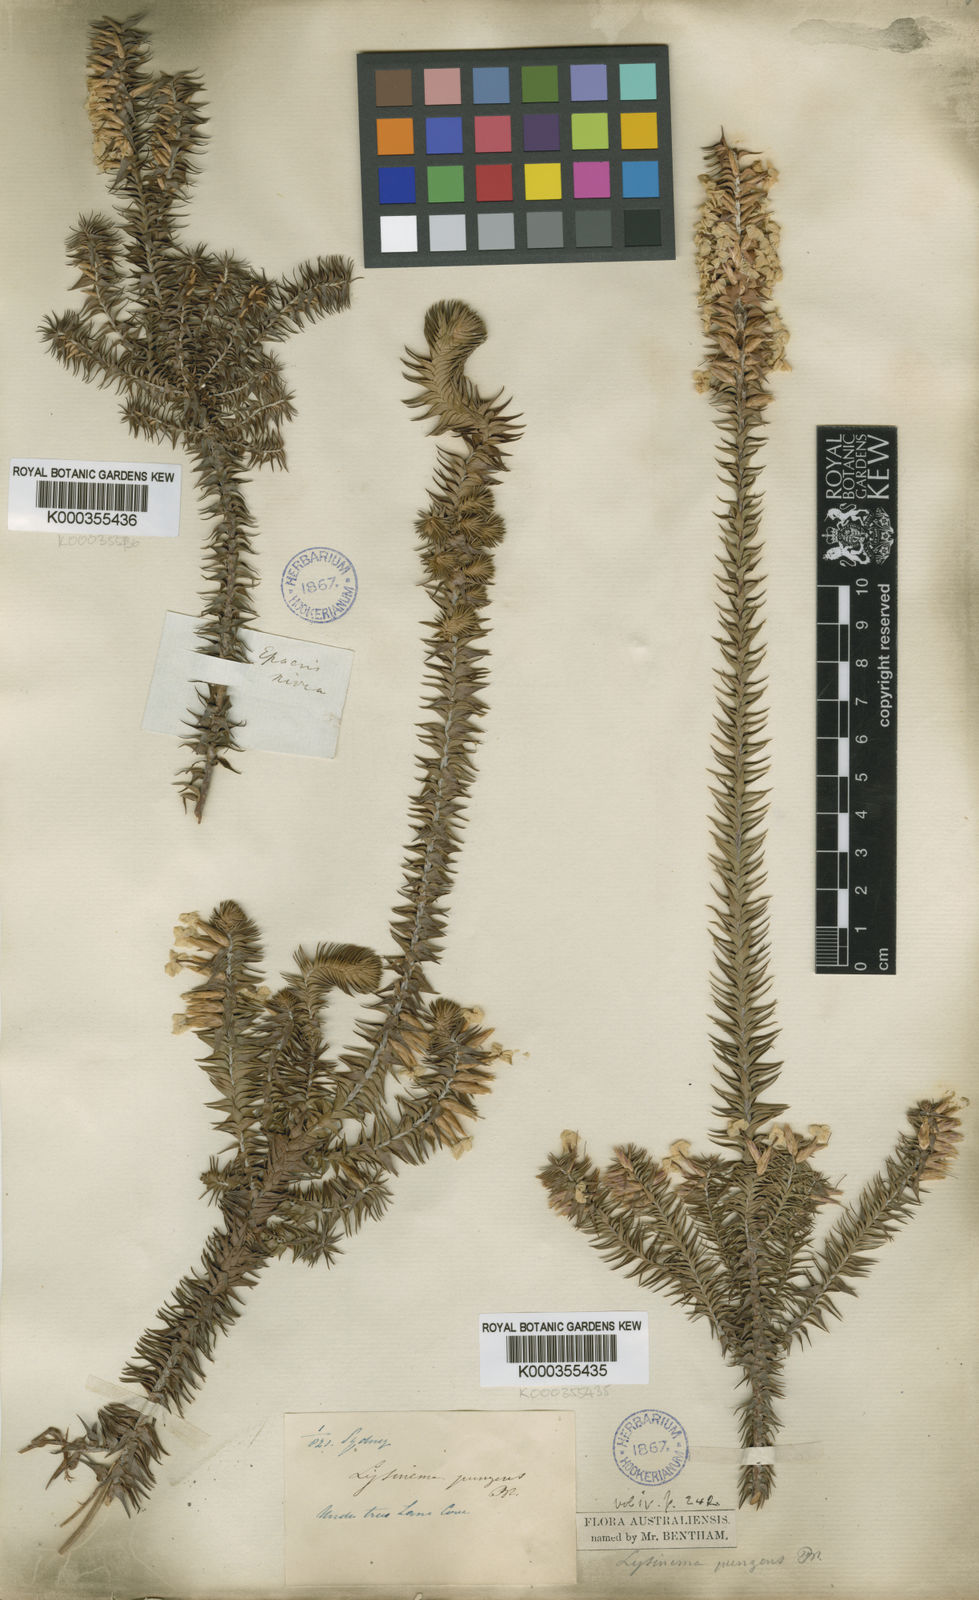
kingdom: Plantae
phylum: Tracheophyta
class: Magnoliopsida
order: Ericales
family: Ericaceae
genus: Woollsia
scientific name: Woollsia pungens
